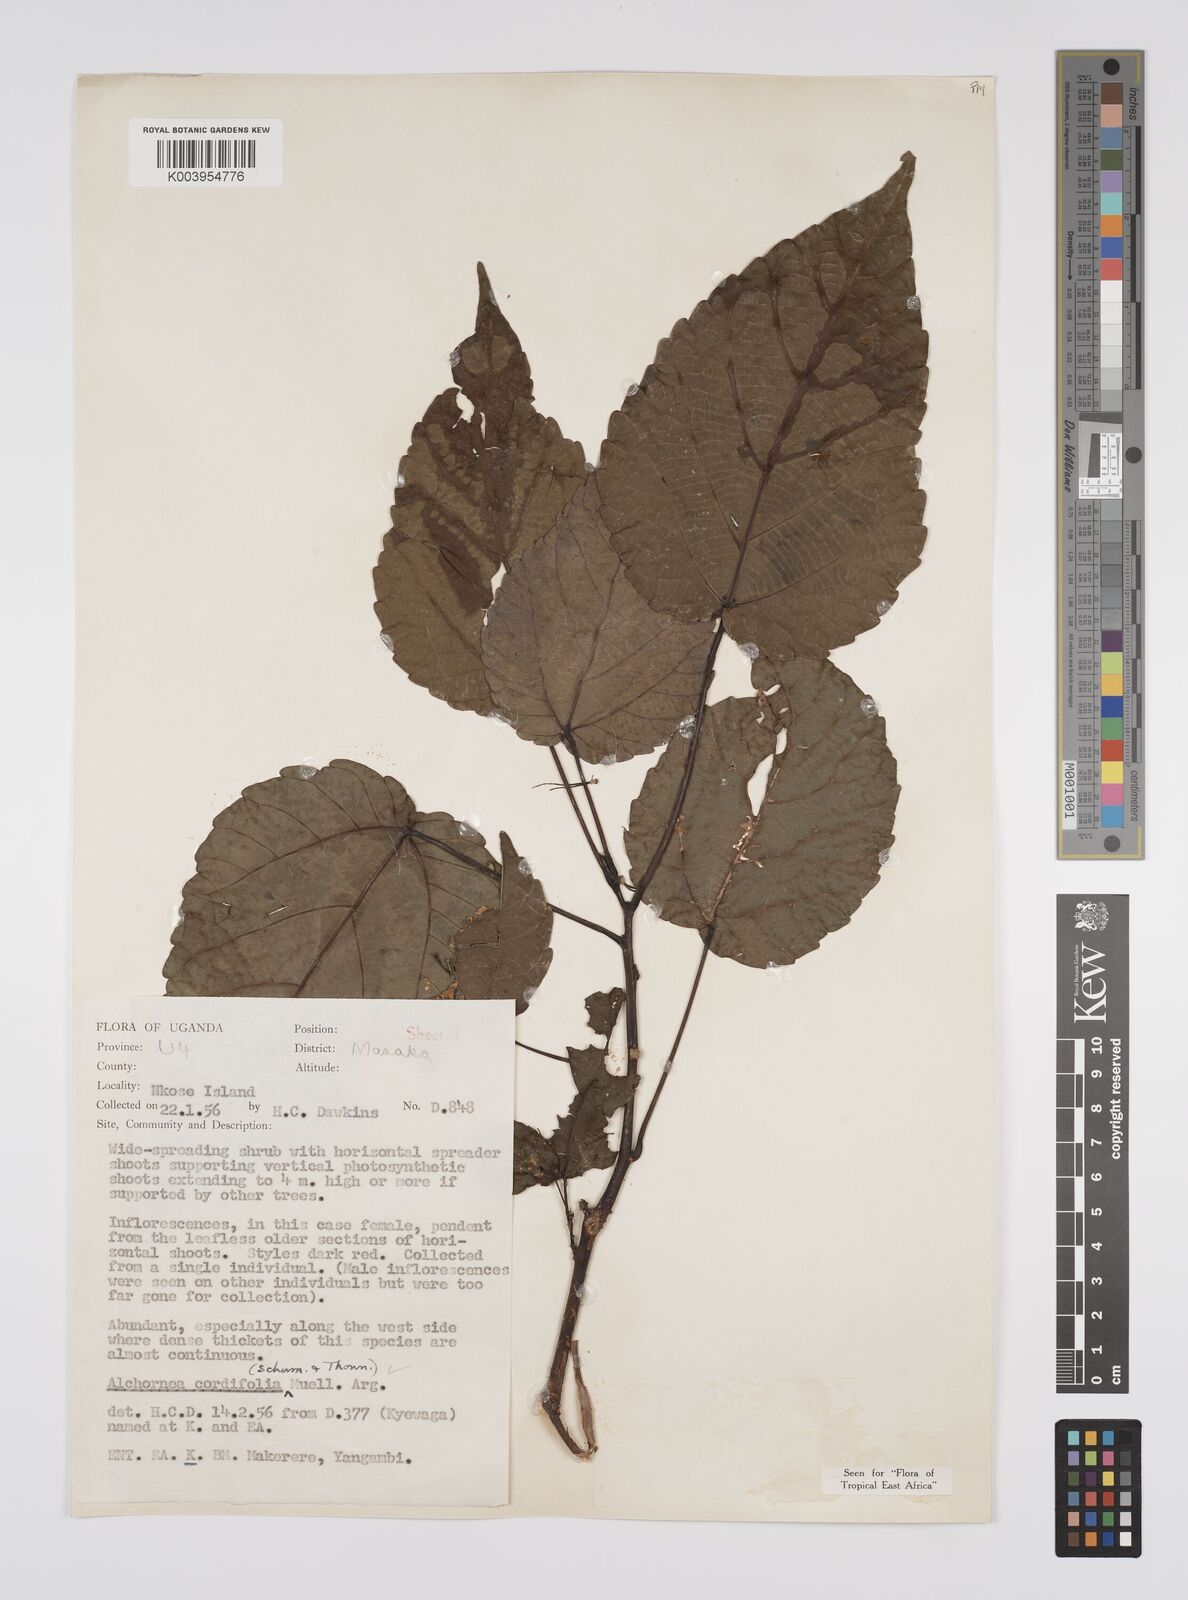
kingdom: Plantae
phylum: Tracheophyta
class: Magnoliopsida
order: Malpighiales
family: Euphorbiaceae
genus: Alchornea
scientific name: Alchornea cordifolia
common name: Christmasbush
